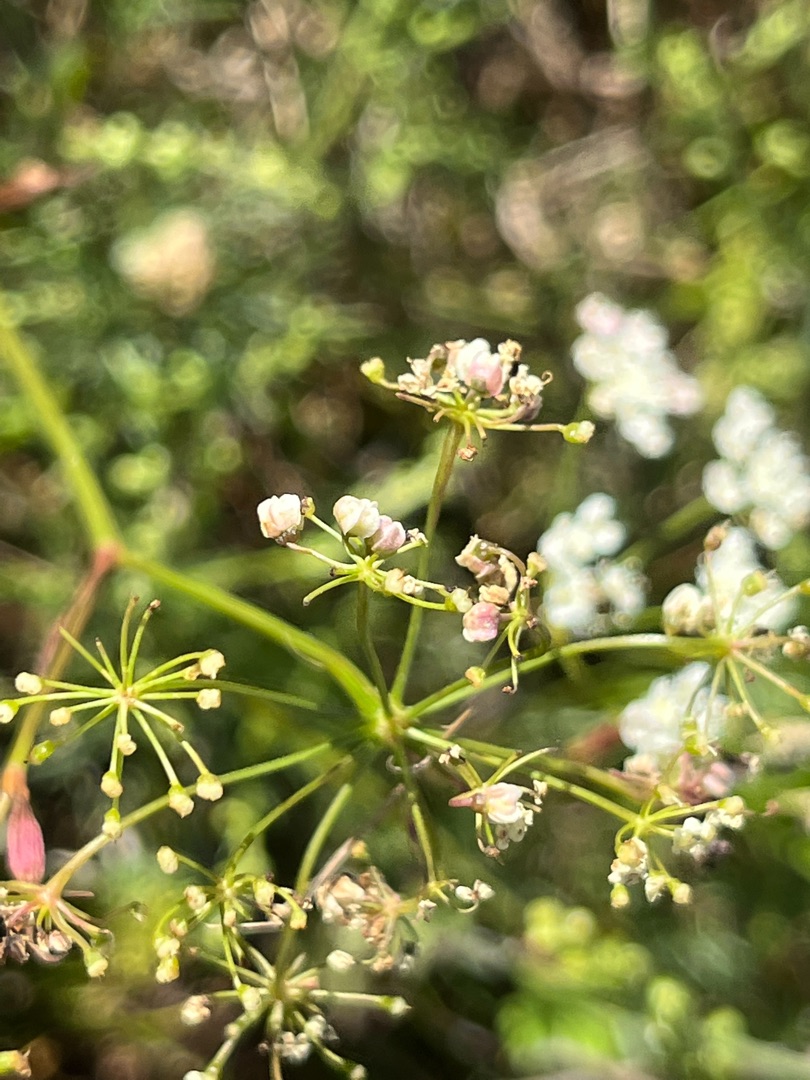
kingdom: Animalia
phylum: Arthropoda
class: Insecta
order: Diptera
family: Cecidomyiidae
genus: Diodaulus
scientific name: Diodaulus traili
